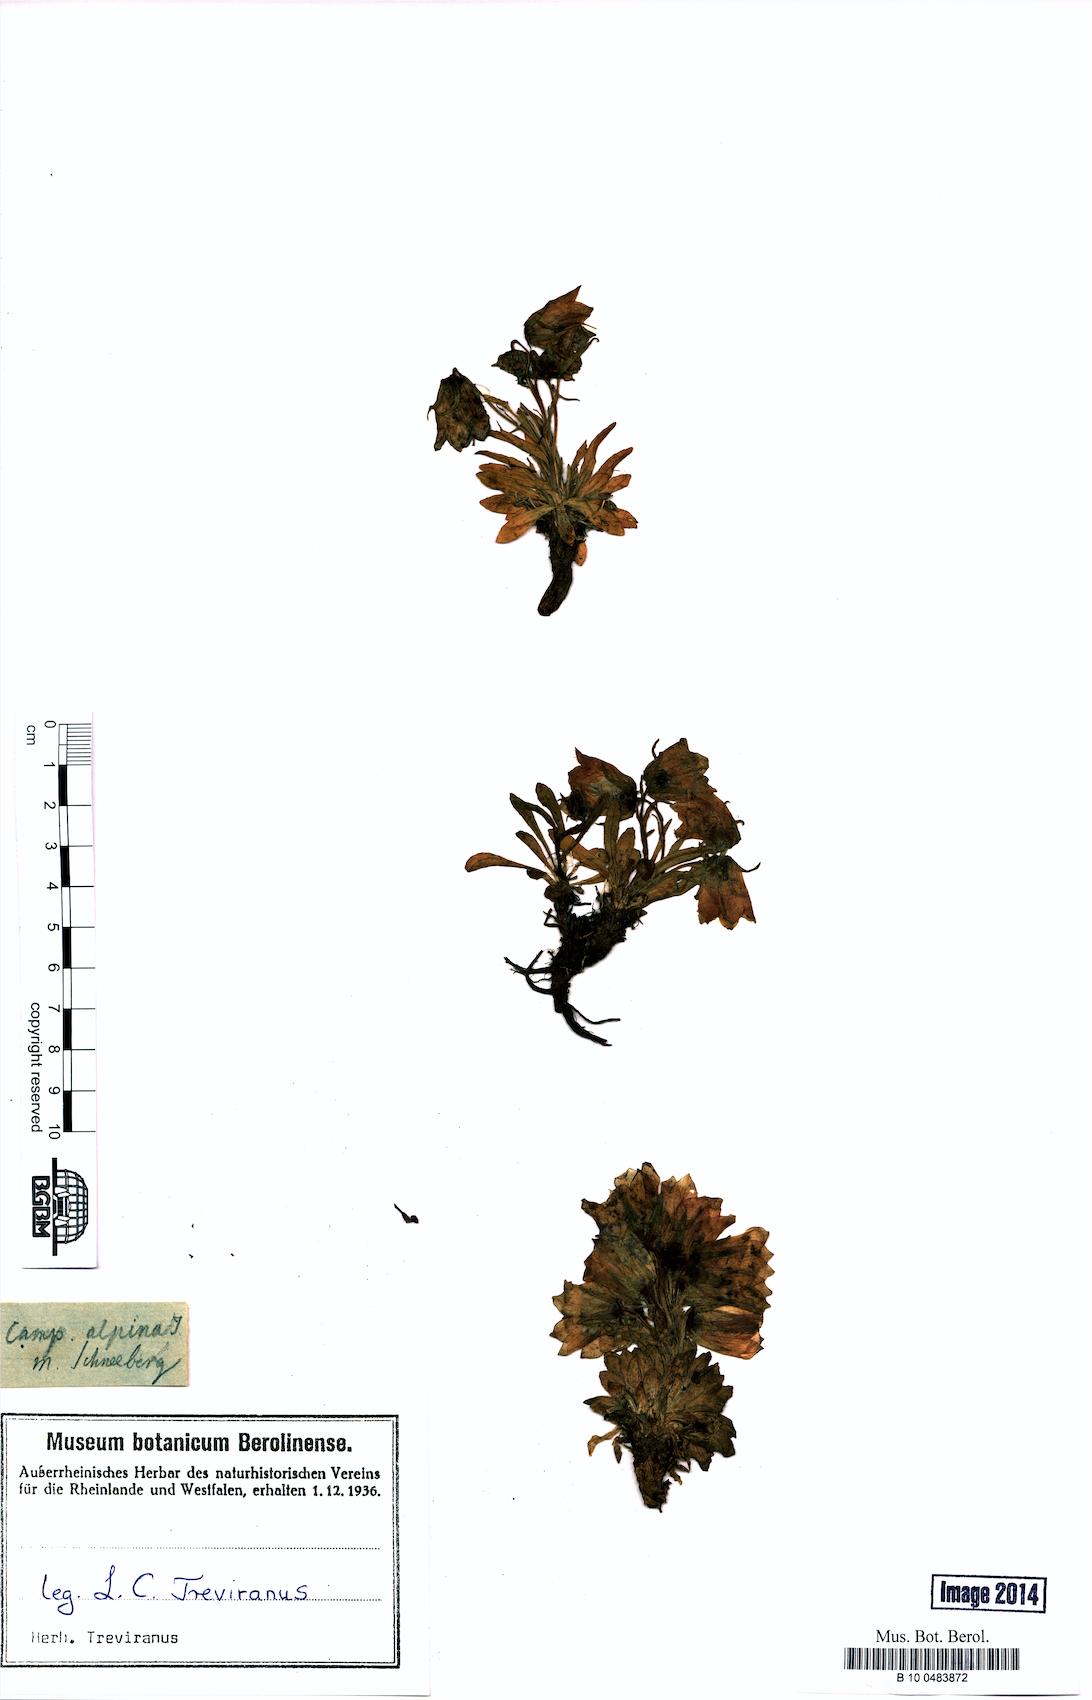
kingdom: Plantae
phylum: Tracheophyta
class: Magnoliopsida
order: Asterales
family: Campanulaceae
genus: Campanula
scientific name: Campanula alpina
